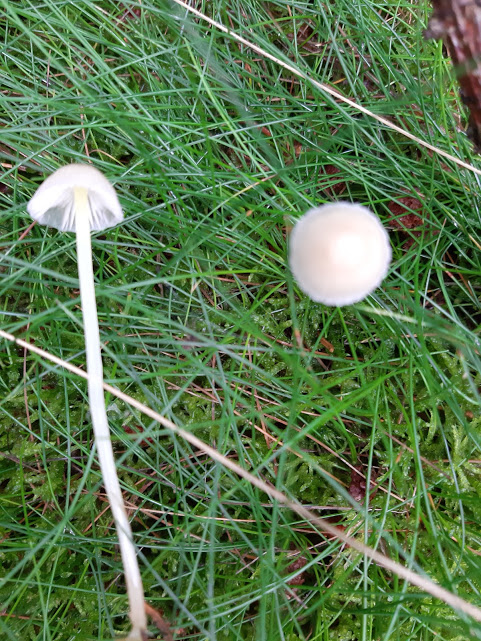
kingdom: Fungi
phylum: Basidiomycota
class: Agaricomycetes
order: Agaricales
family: Mycenaceae
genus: Mycena
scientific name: Mycena epipterygia
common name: gulstokket huesvamp
